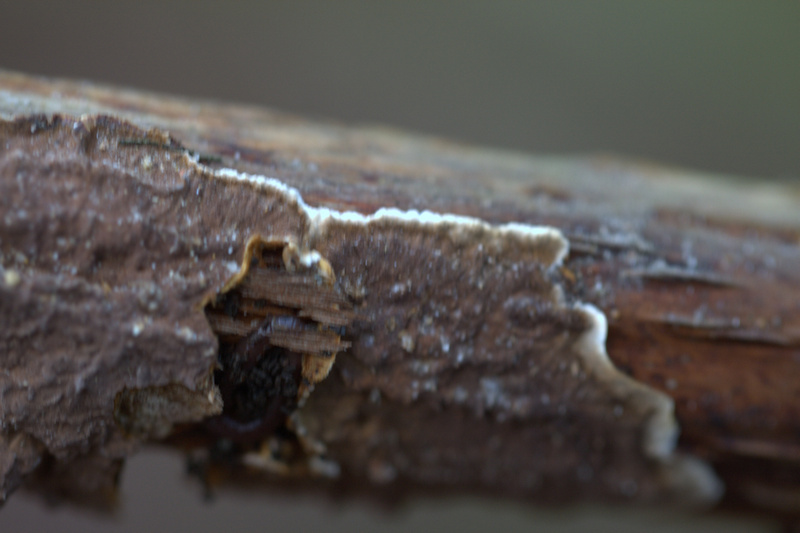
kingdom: Fungi
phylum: Basidiomycota
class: Agaricomycetes
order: Hymenochaetales
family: Hymenochaetaceae
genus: Hydnoporia
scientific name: Hydnoporia tabacina
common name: tobaksbrun ruslædersvamp
